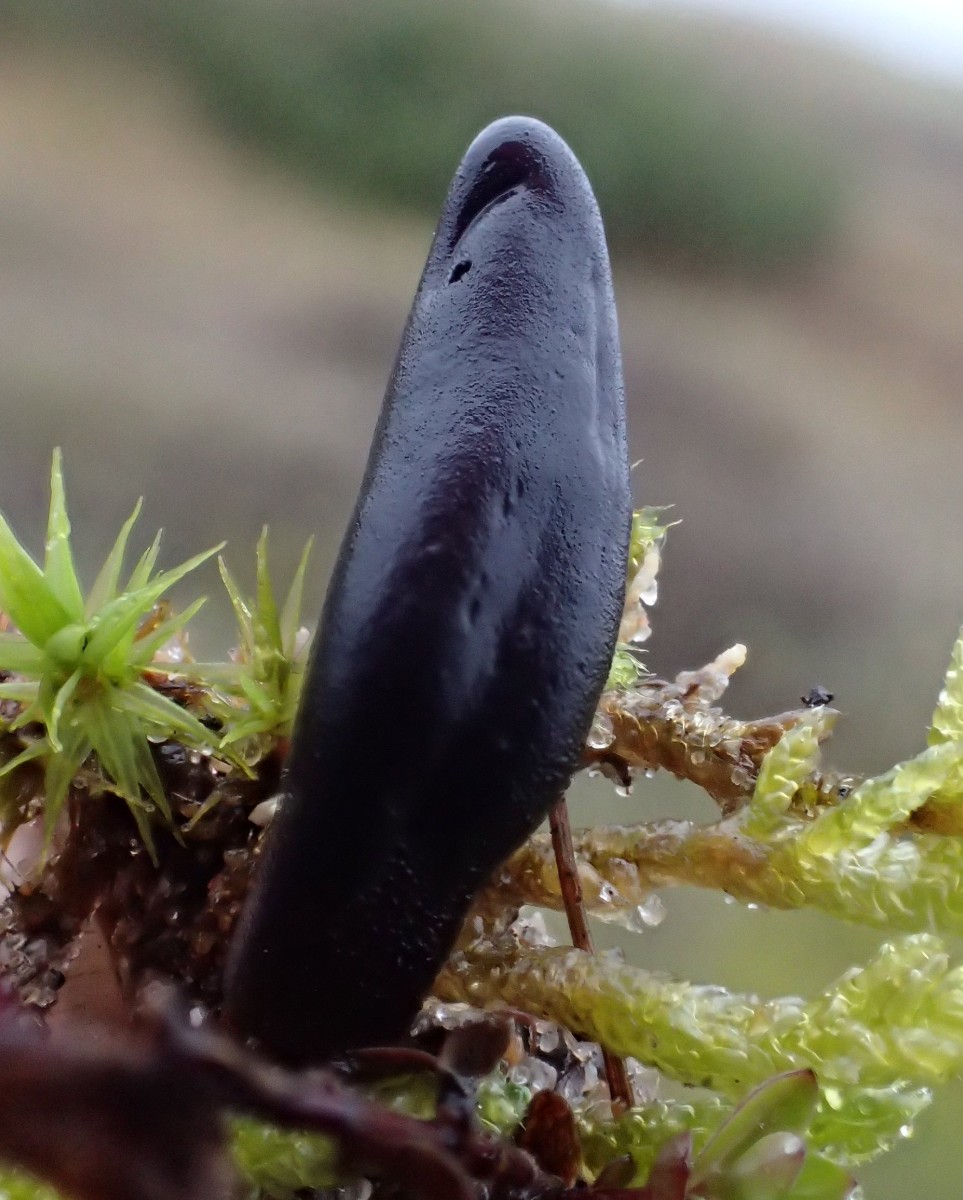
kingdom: Fungi
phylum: Ascomycota
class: Geoglossomycetes
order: Geoglossales
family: Geoglossaceae
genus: Glutinoglossum
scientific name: Glutinoglossum glutinosum
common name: slimet jordtunge
